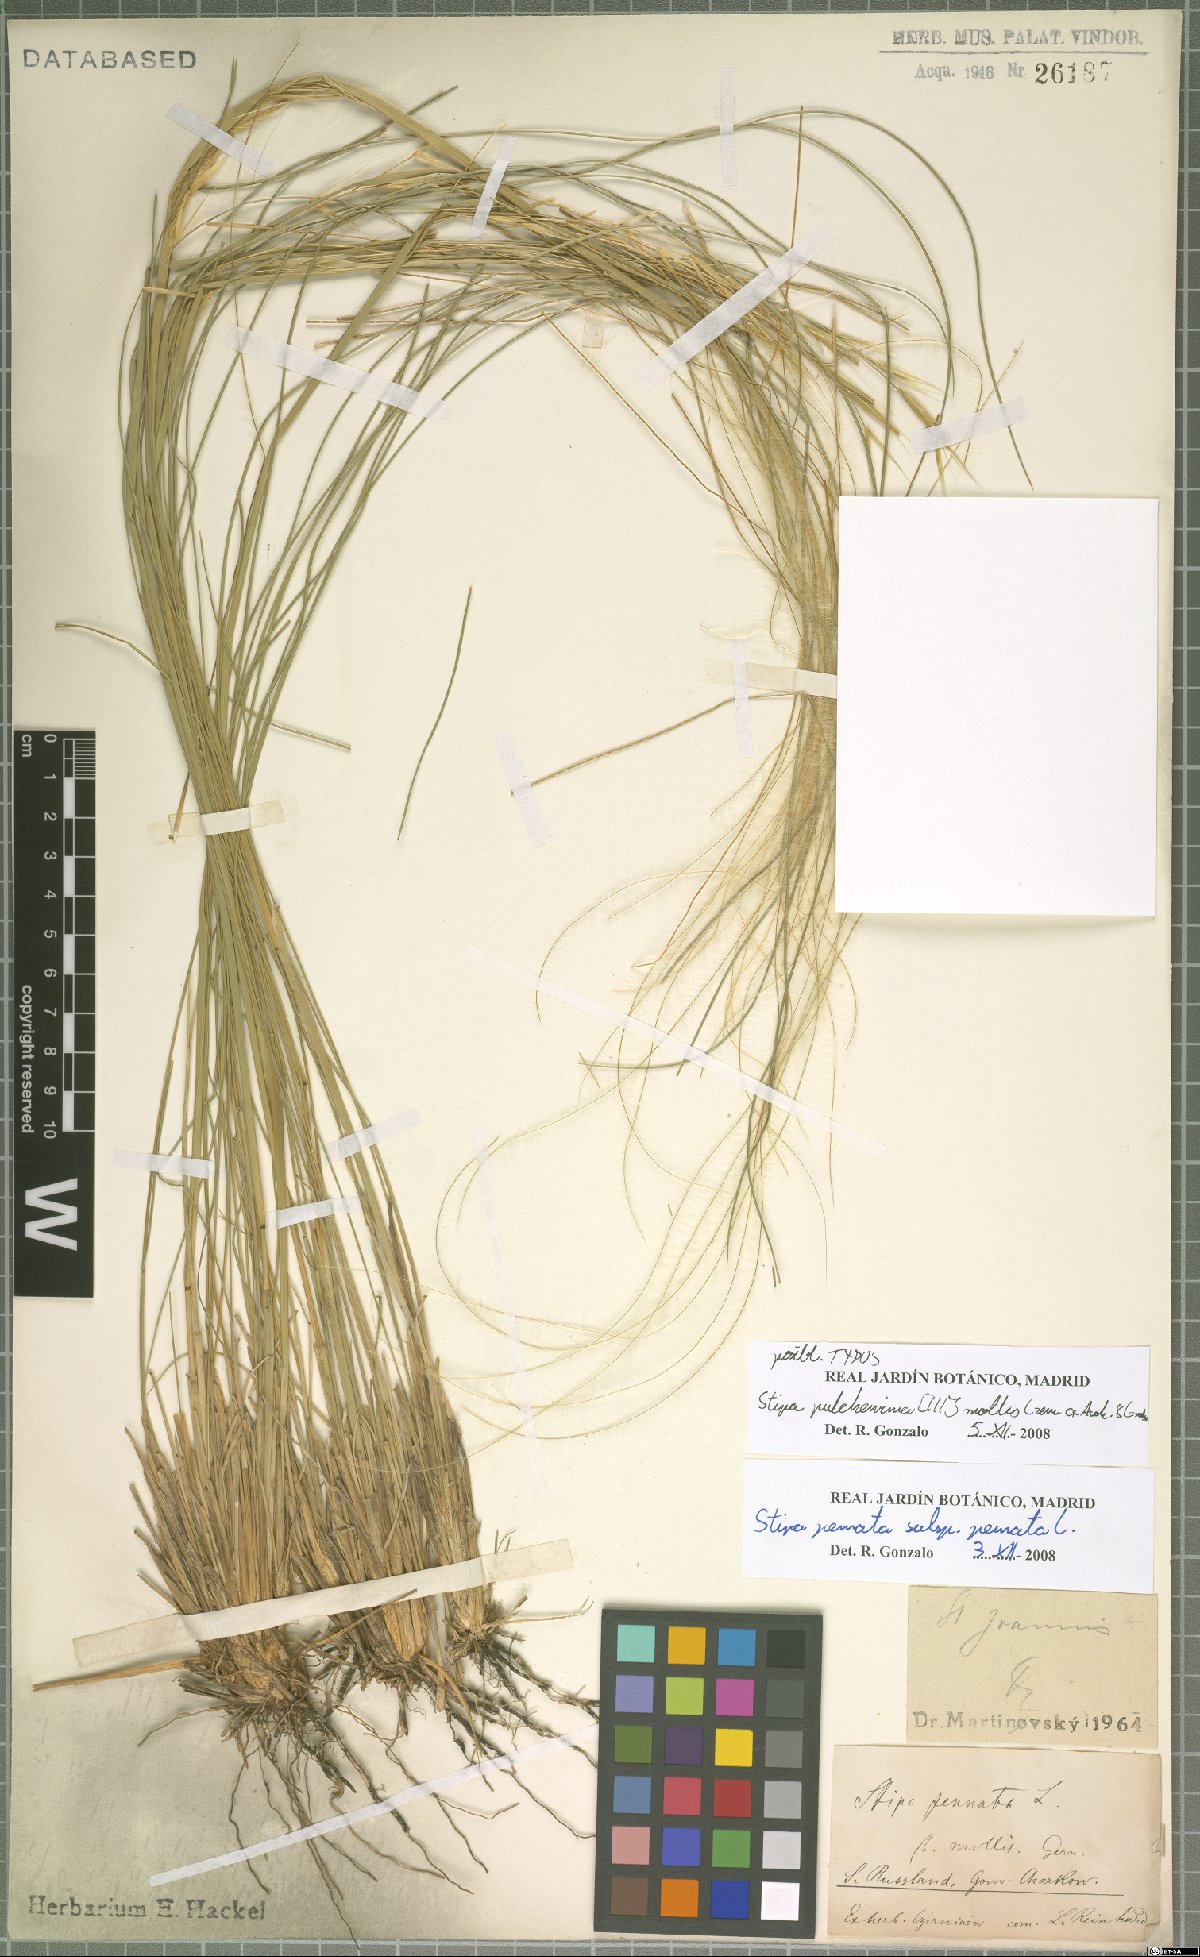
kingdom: Plantae
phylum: Tracheophyta
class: Liliopsida
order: Poales
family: Poaceae
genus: Stipa
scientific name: Stipa pennata
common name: European feather grass
